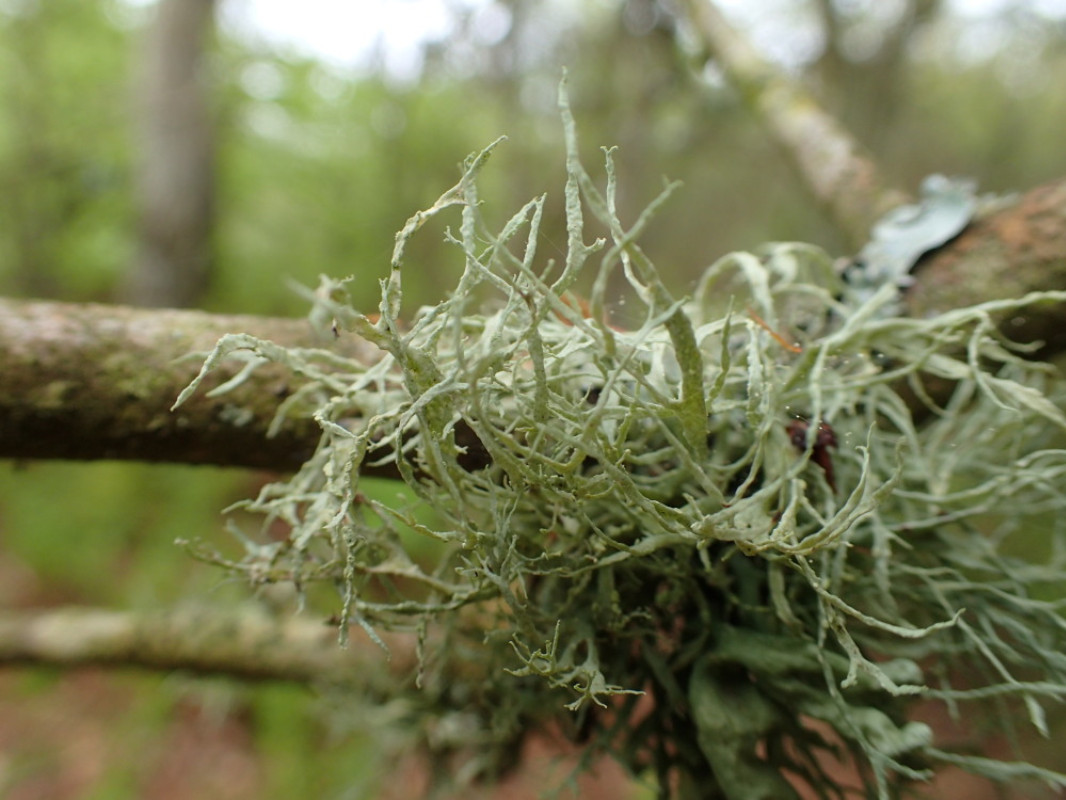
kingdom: Fungi
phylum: Ascomycota
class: Lecanoromycetes
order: Lecanorales
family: Ramalinaceae
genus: Ramalina
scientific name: Ramalina farinacea
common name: melet grenlav
